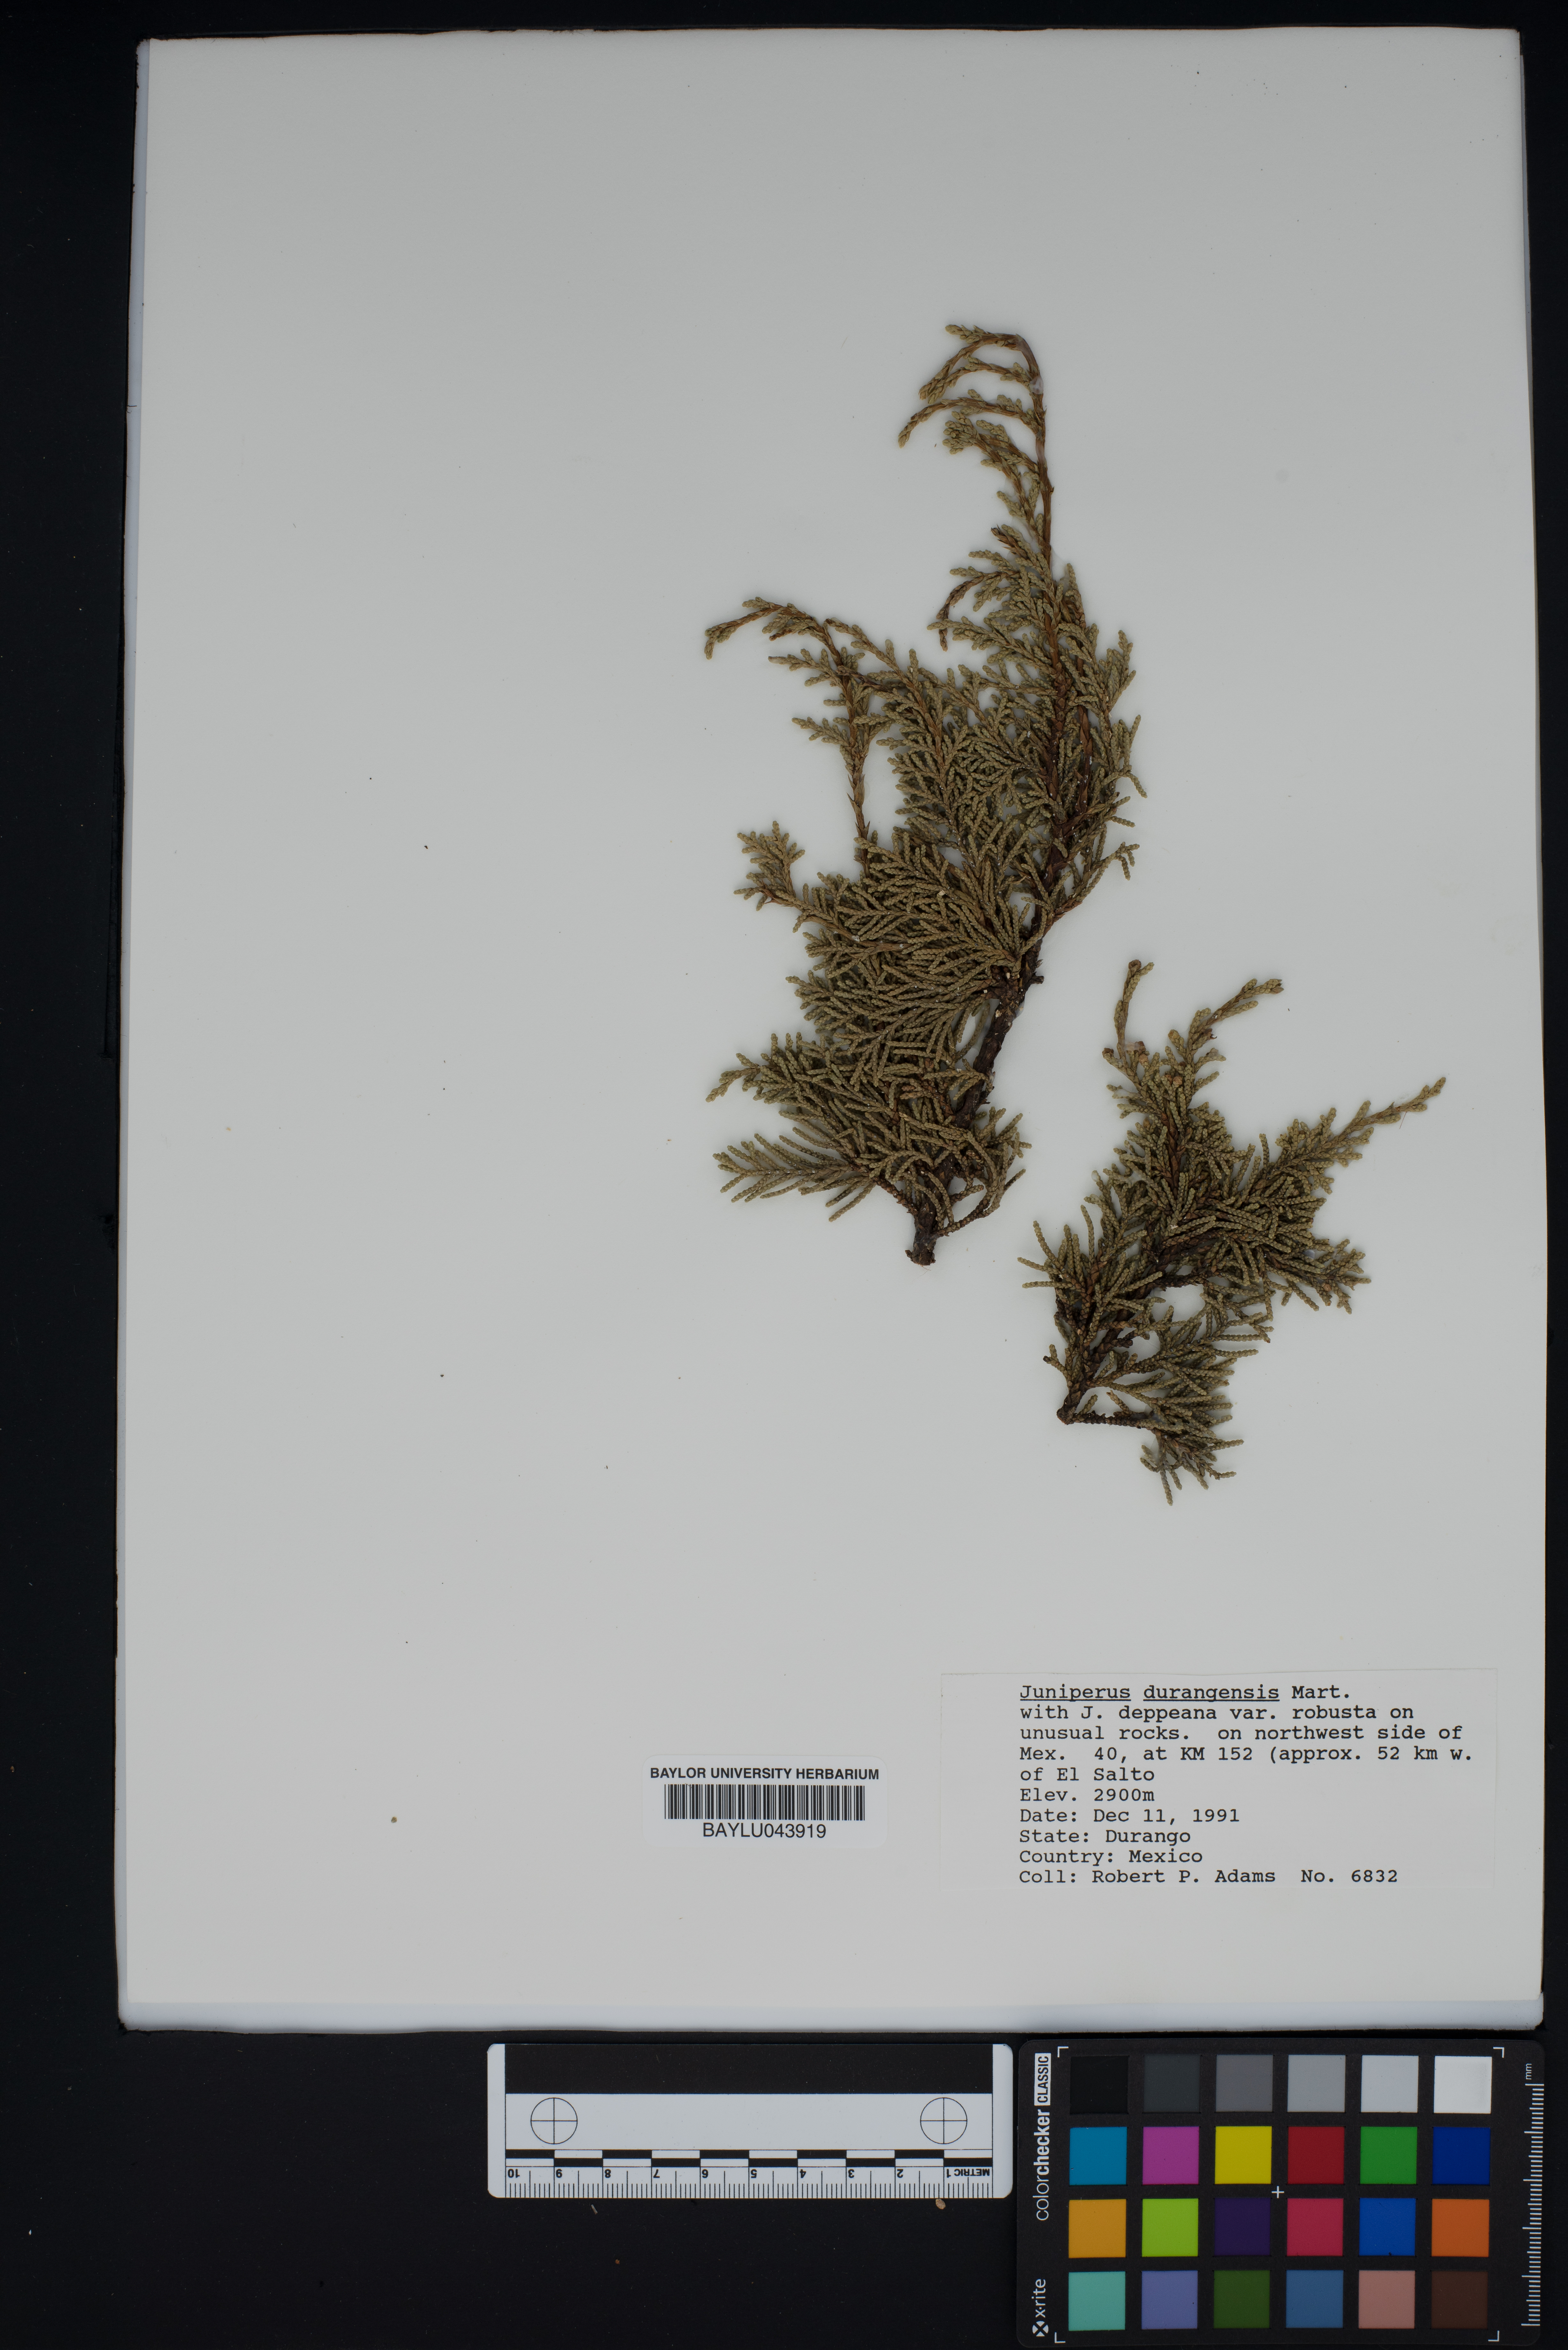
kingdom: Plantae
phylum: Tracheophyta
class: Pinopsida
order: Pinales
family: Cupressaceae
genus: Juniperus
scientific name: Juniperus durangensis
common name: Durango juniper
